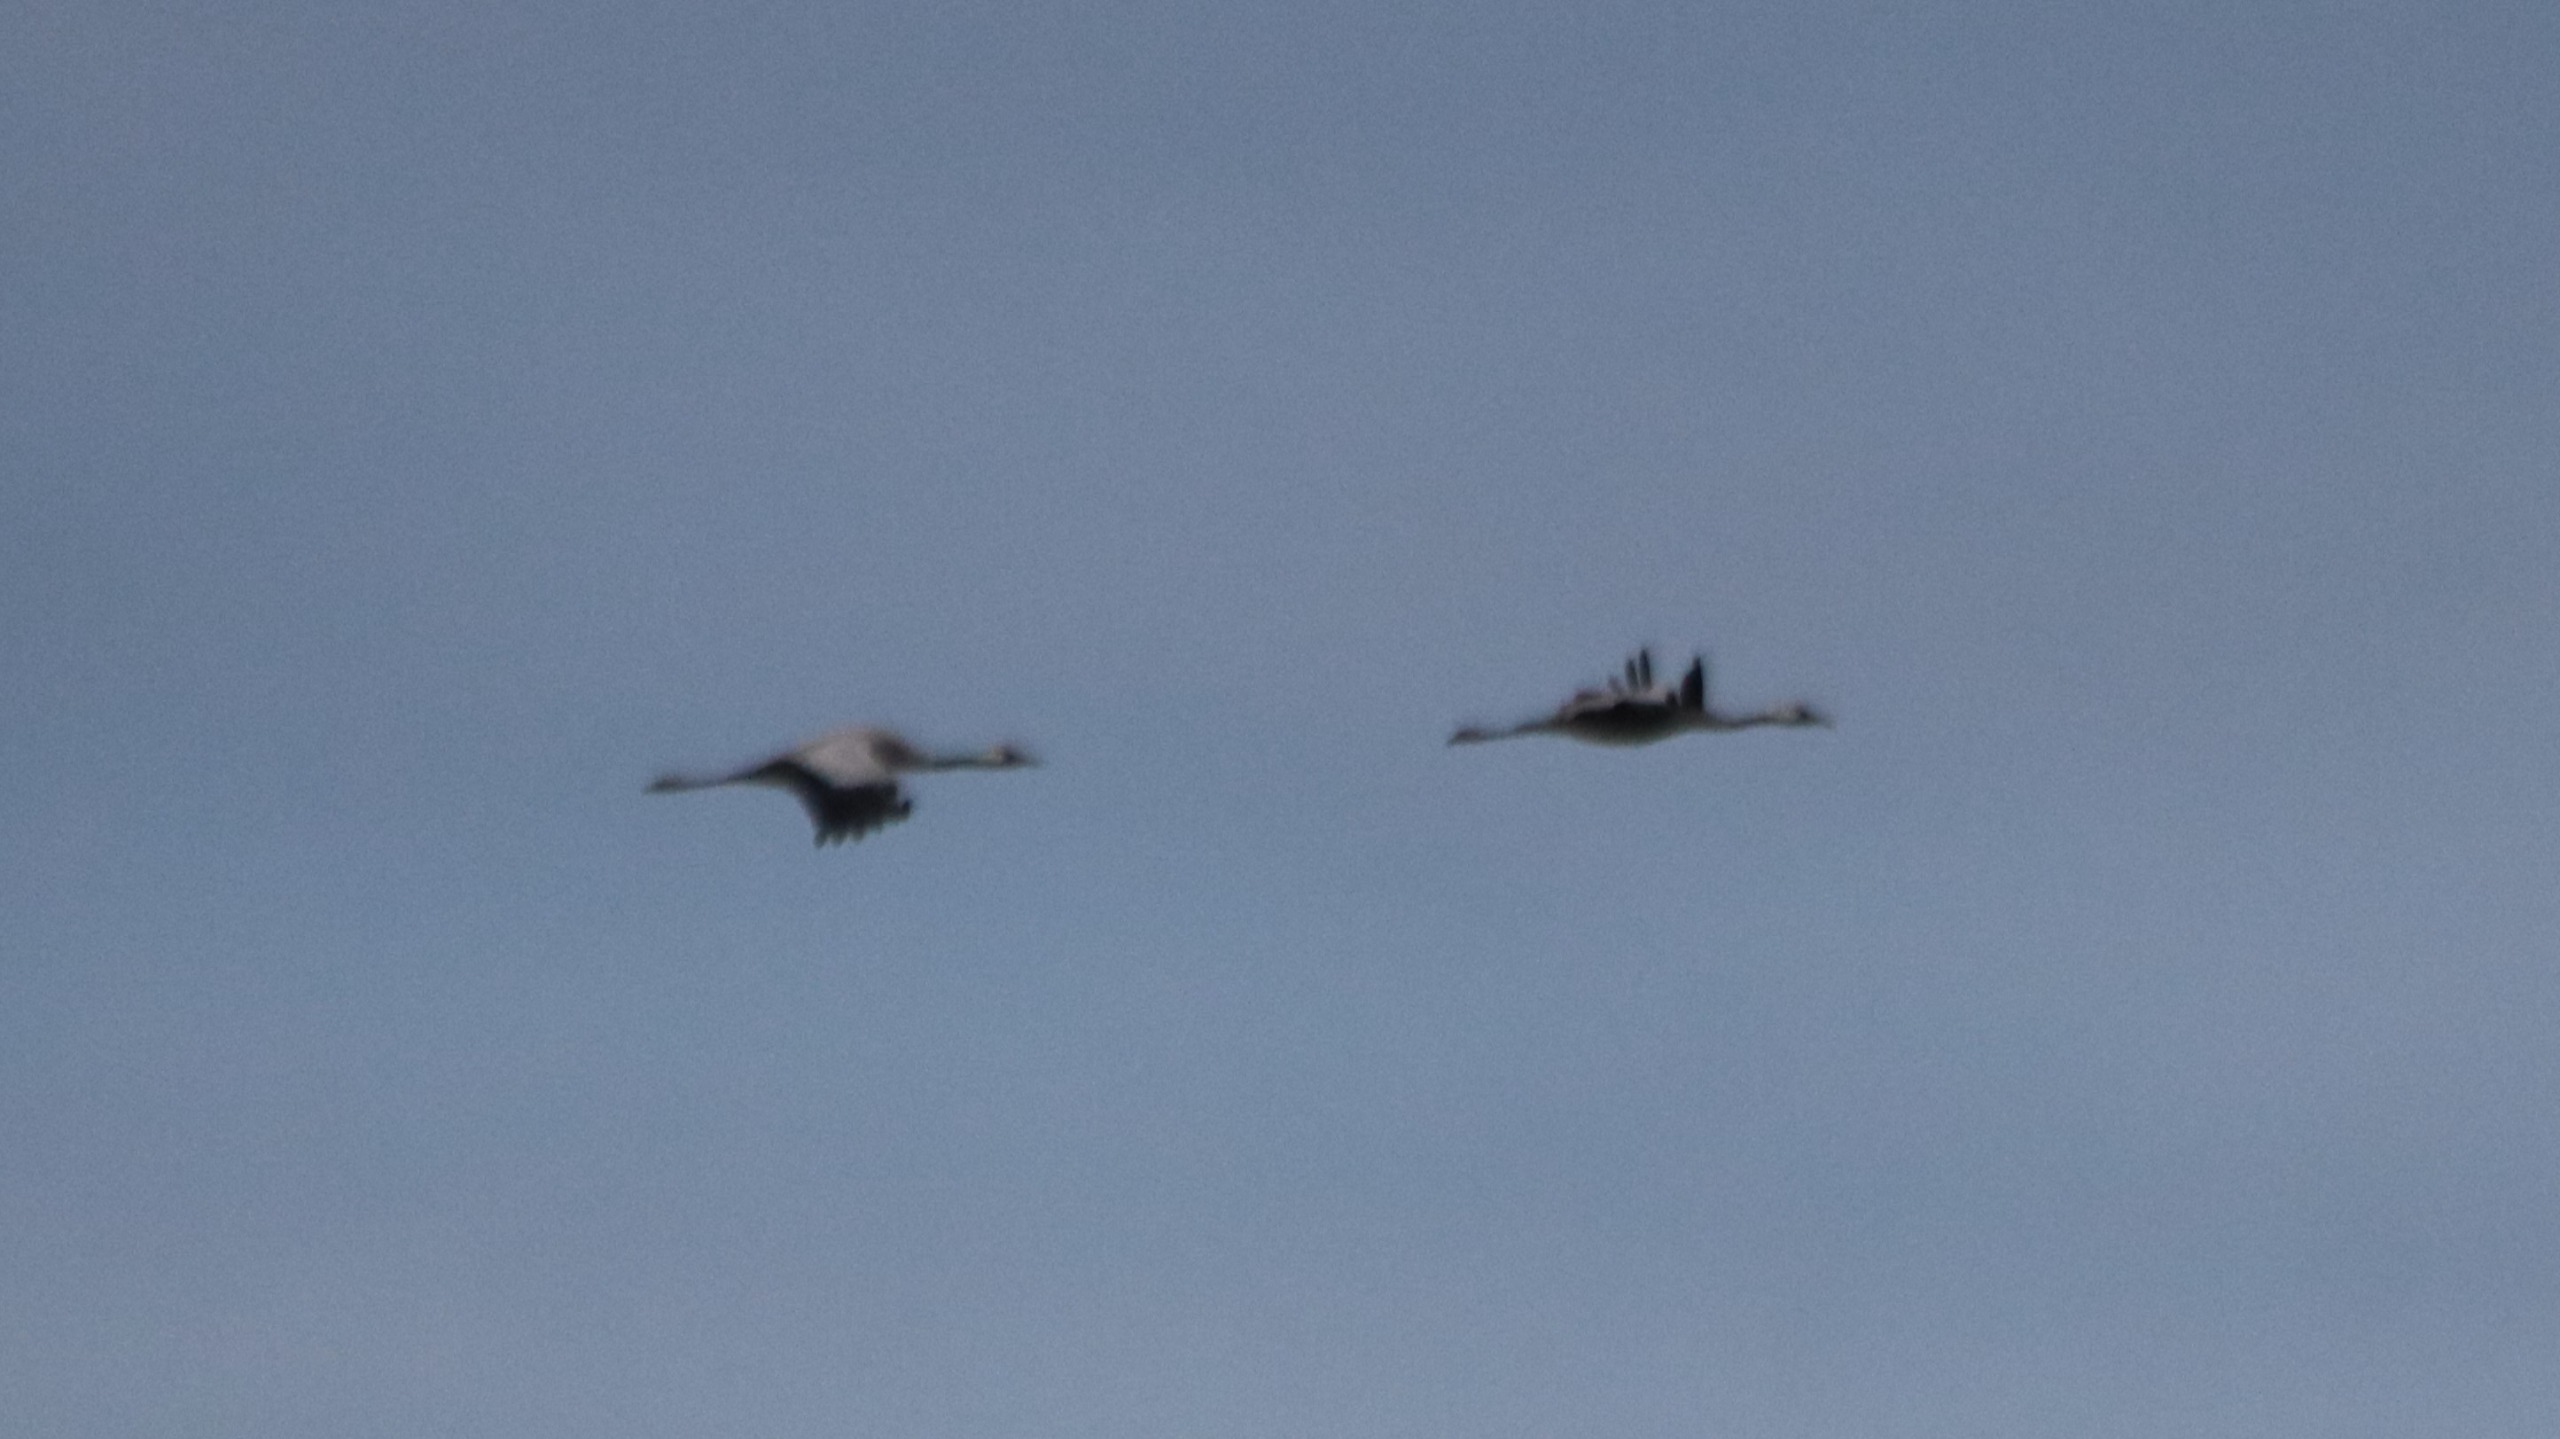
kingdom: Animalia
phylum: Chordata
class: Aves
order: Gruiformes
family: Gruidae
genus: Grus
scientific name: Grus grus
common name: Trane
